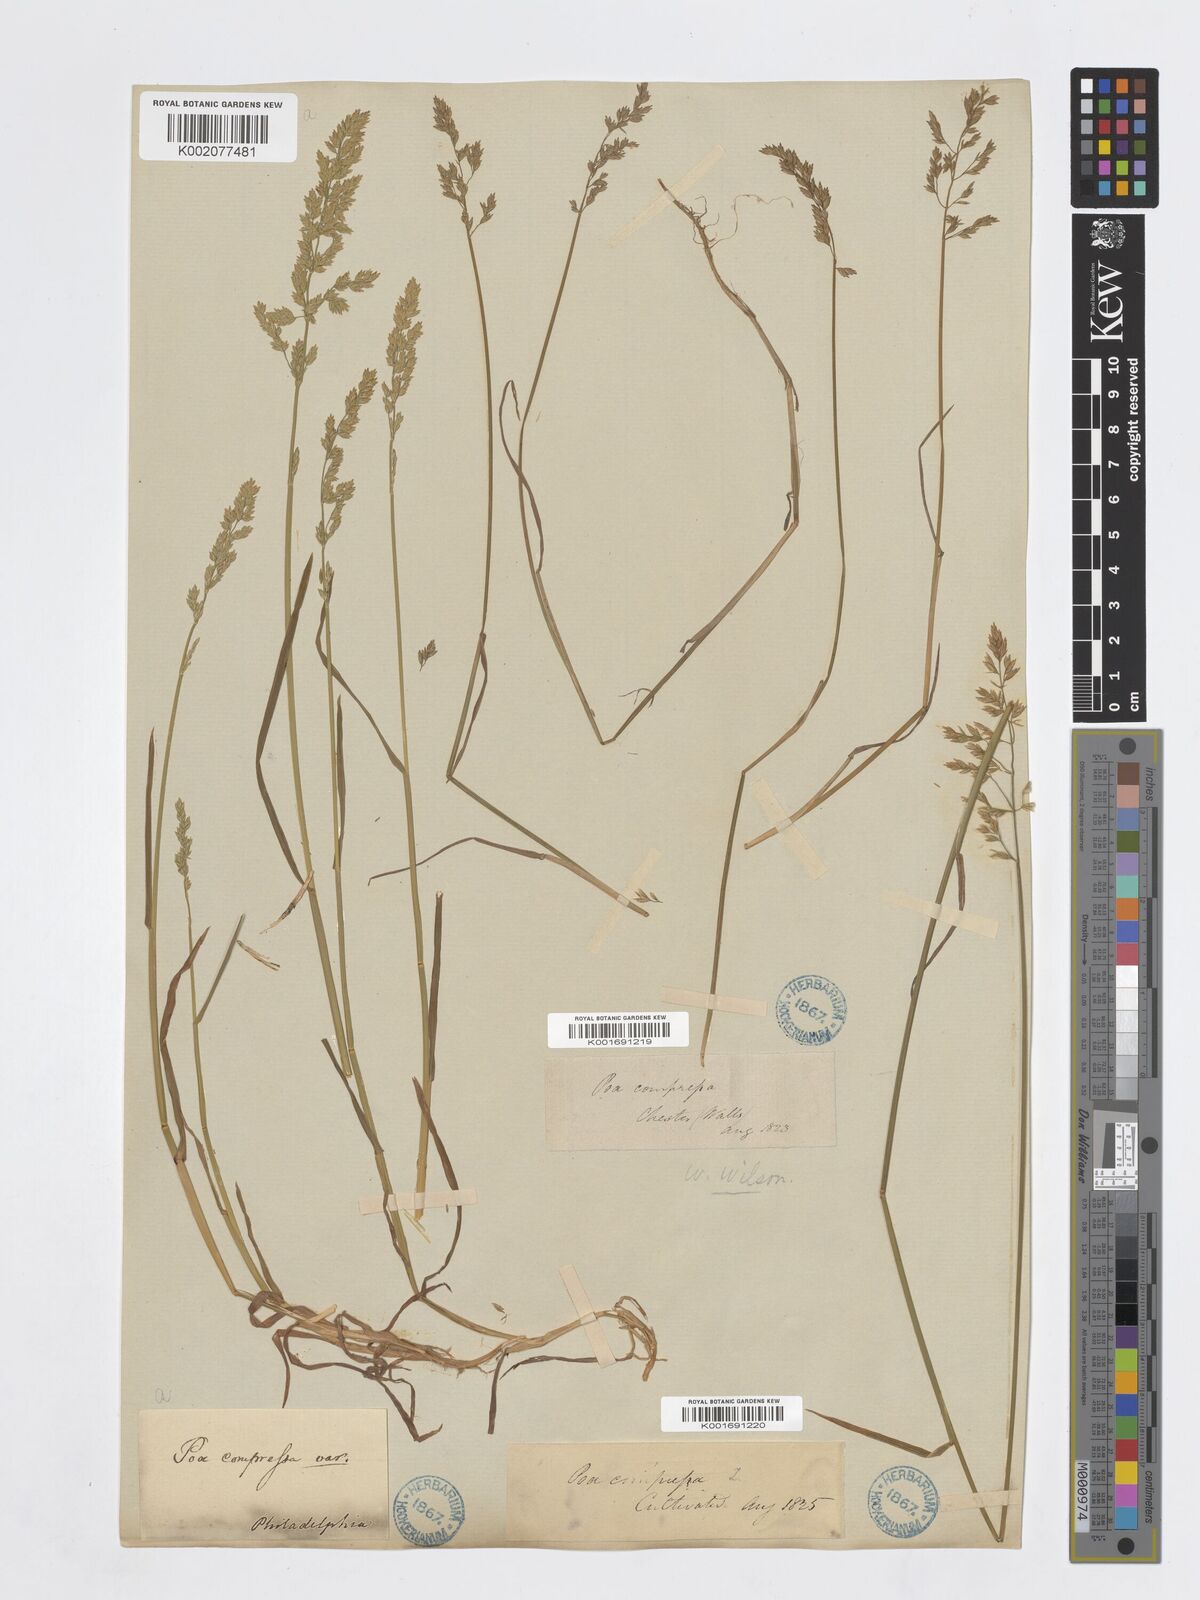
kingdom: Plantae
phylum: Tracheophyta
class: Liliopsida
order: Poales
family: Poaceae
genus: Poa
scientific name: Poa compressa
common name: Canada bluegrass
